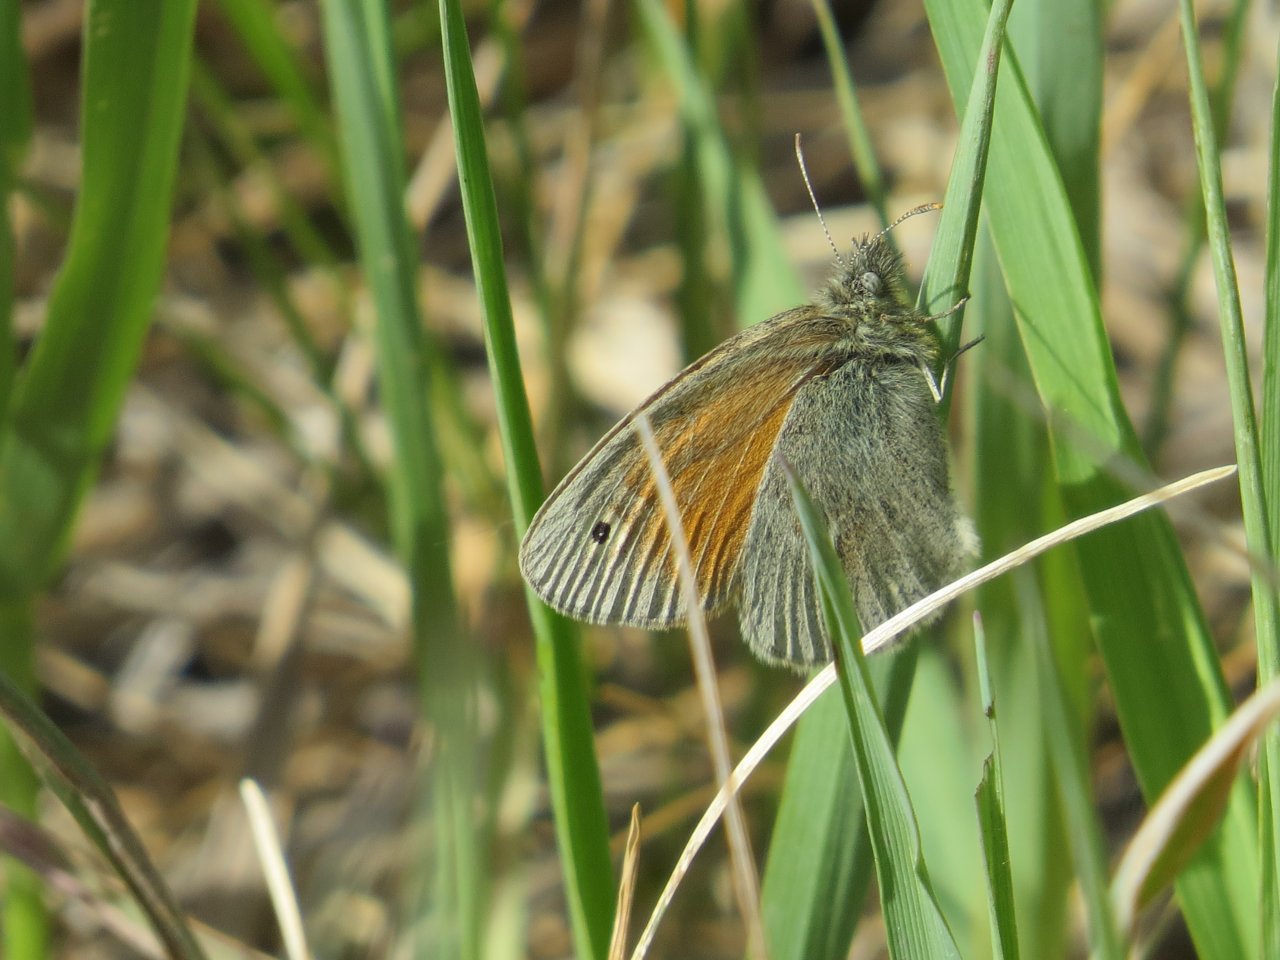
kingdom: Animalia
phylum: Arthropoda
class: Insecta
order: Lepidoptera
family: Nymphalidae
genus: Coenonympha
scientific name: Coenonympha tullia
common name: Large Heath
